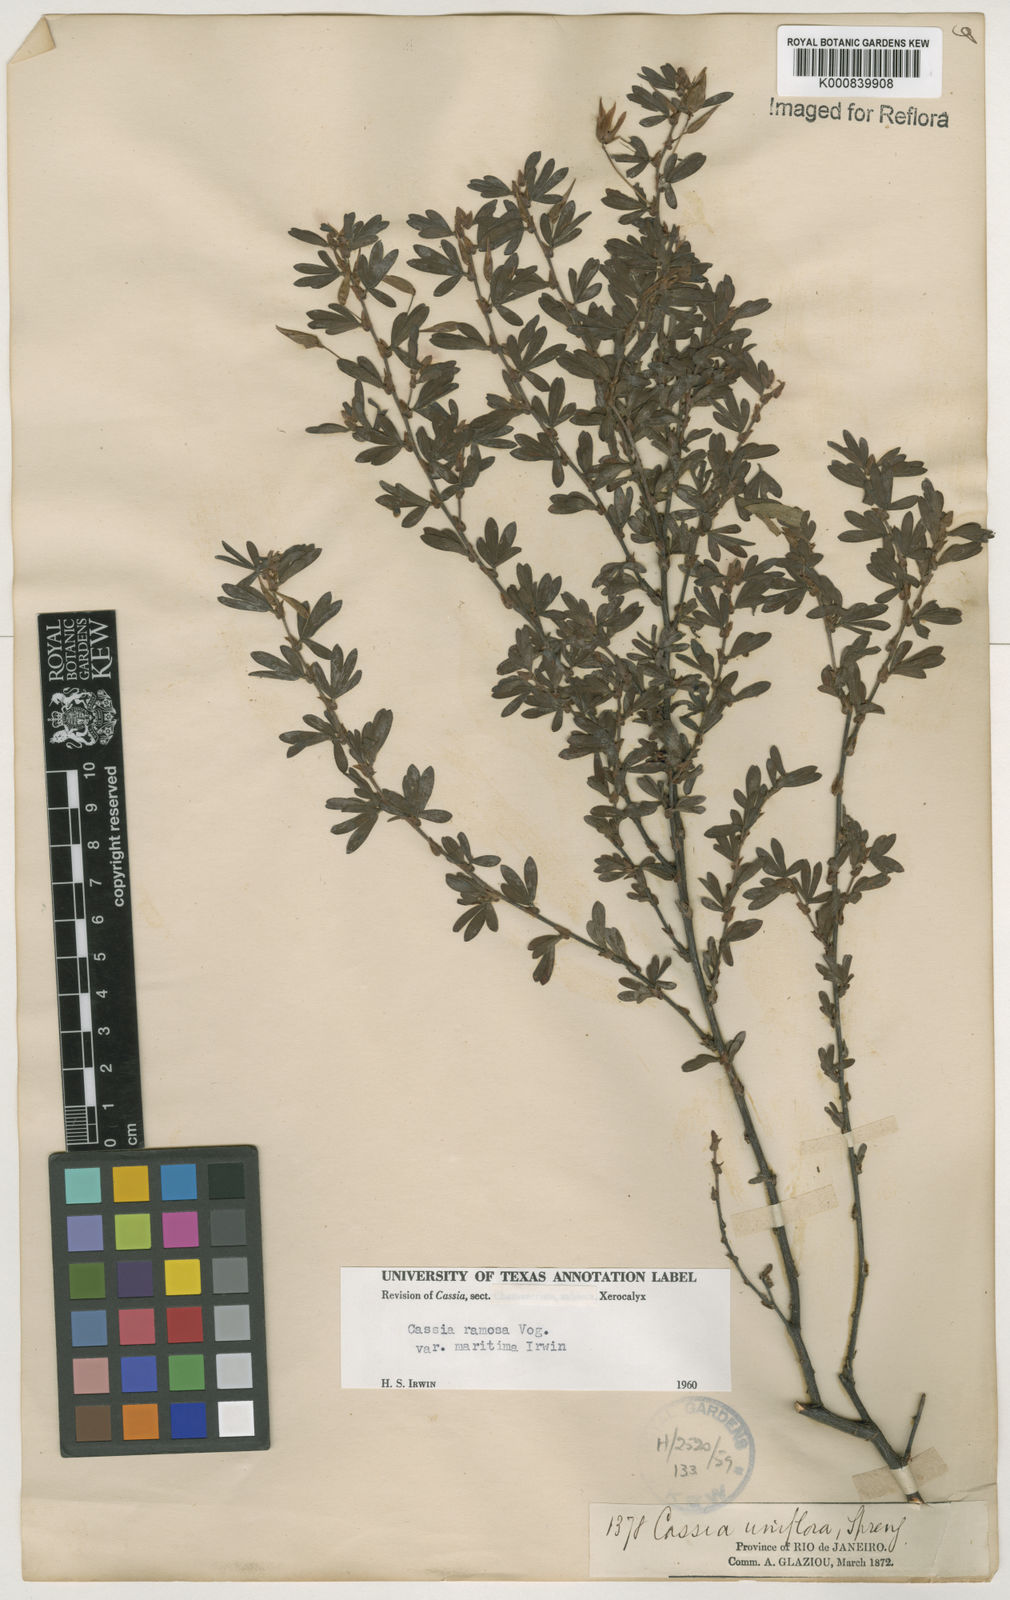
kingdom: Plantae
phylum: Tracheophyta
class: Magnoliopsida
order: Fabales
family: Fabaceae
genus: Chamaecrista
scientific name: Chamaecrista ramosa
